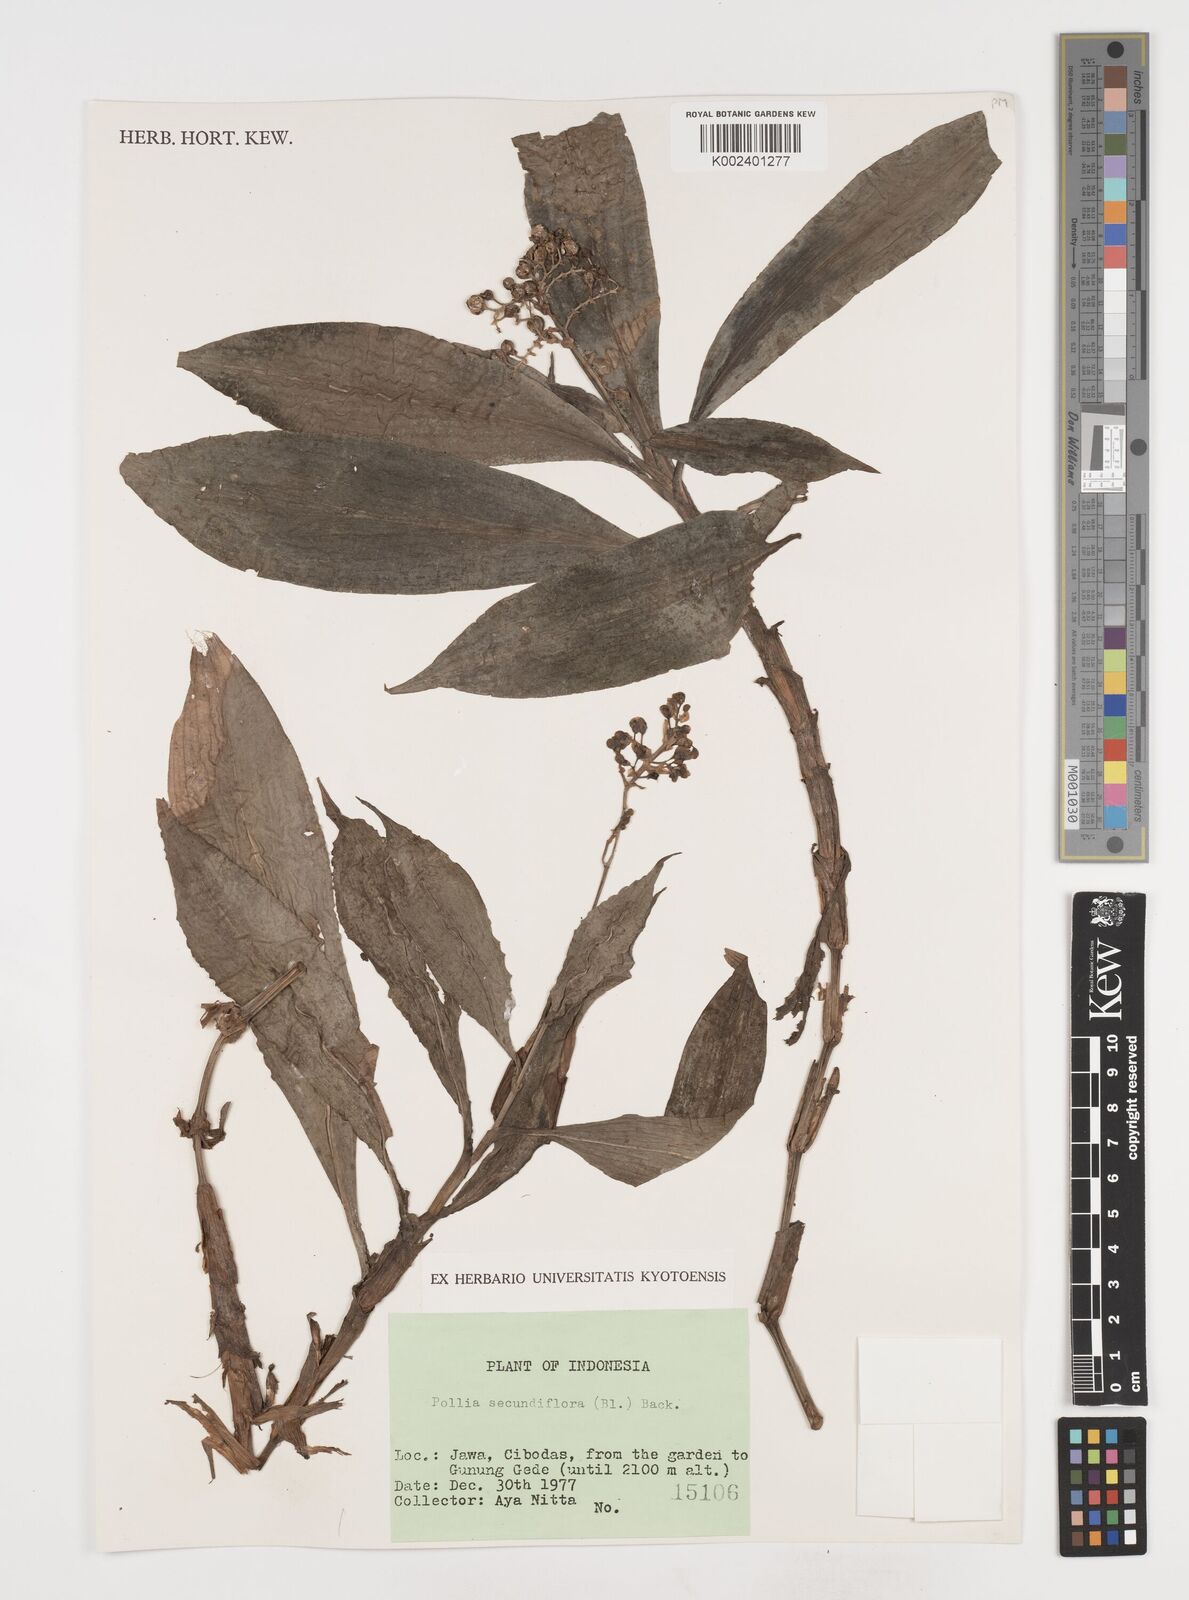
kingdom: Plantae
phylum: Tracheophyta
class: Liliopsida
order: Commelinales
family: Commelinaceae
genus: Pollia
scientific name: Pollia secundiflora
